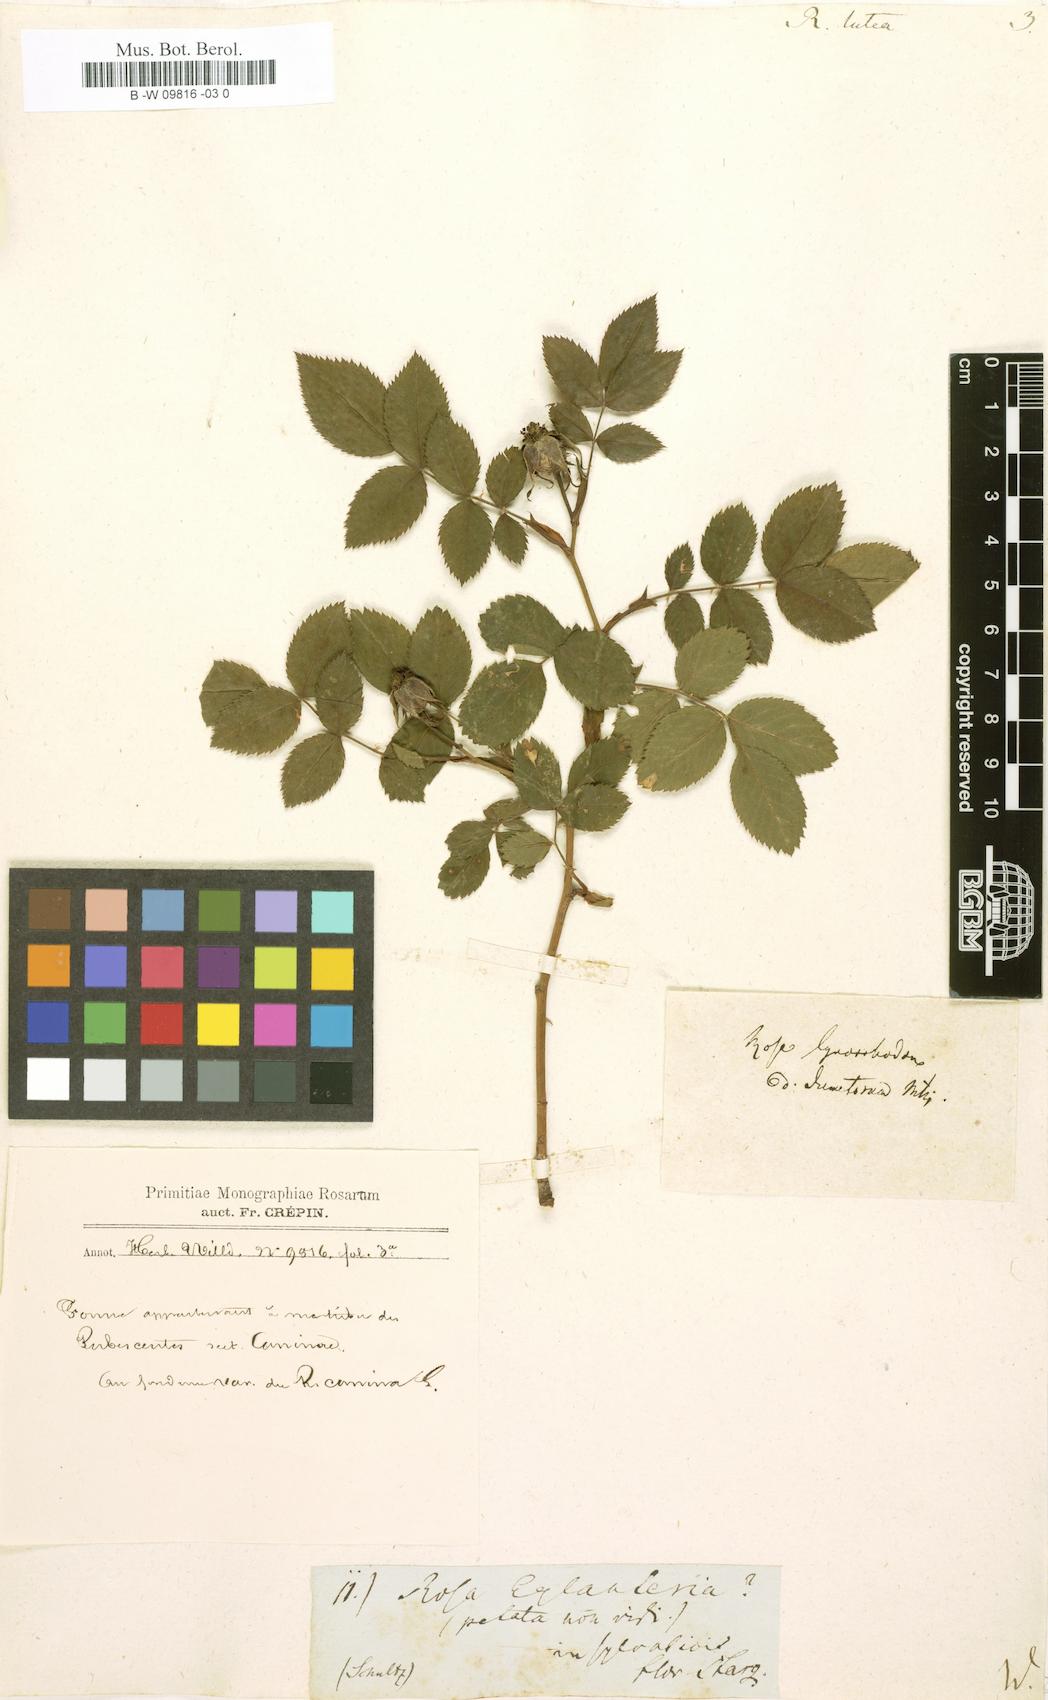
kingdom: Plantae
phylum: Tracheophyta
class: Magnoliopsida
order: Rosales
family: Rosaceae
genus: Rosa
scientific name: Rosa foetida
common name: Persian yellow rose
